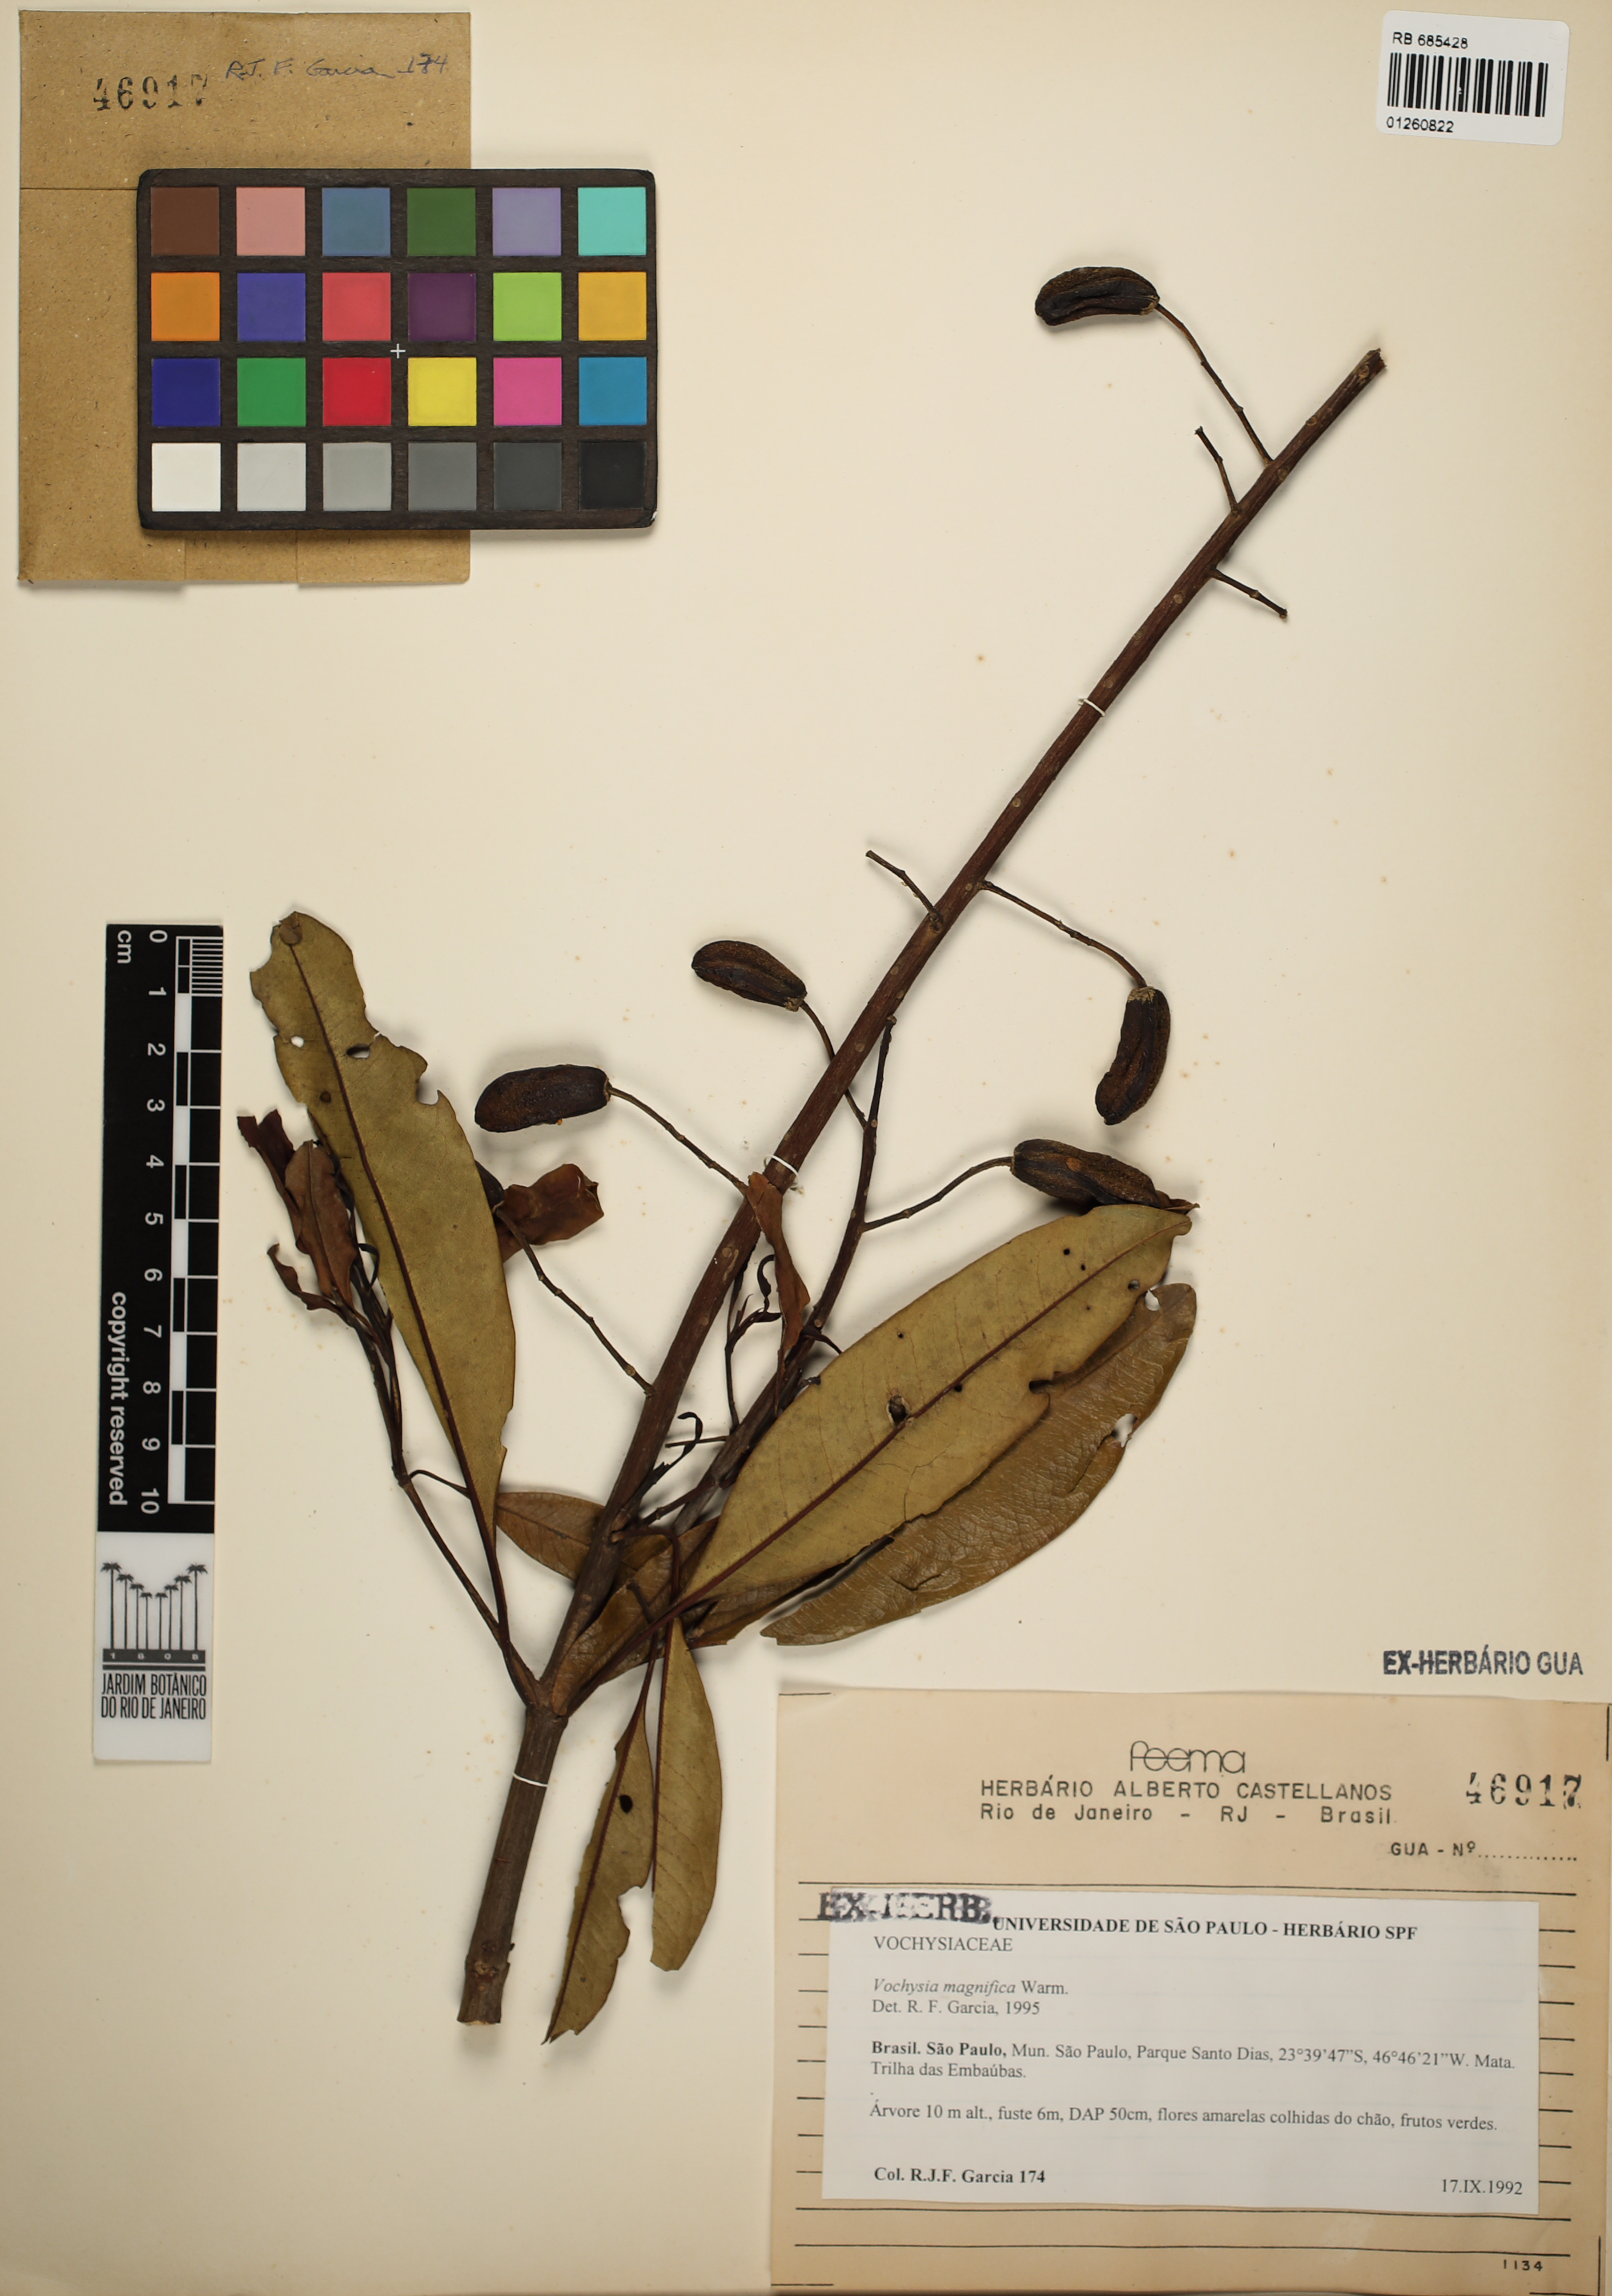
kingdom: Plantae
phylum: Tracheophyta
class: Magnoliopsida
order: Myrtales
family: Vochysiaceae
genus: Vochysia
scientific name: Vochysia magnifica
